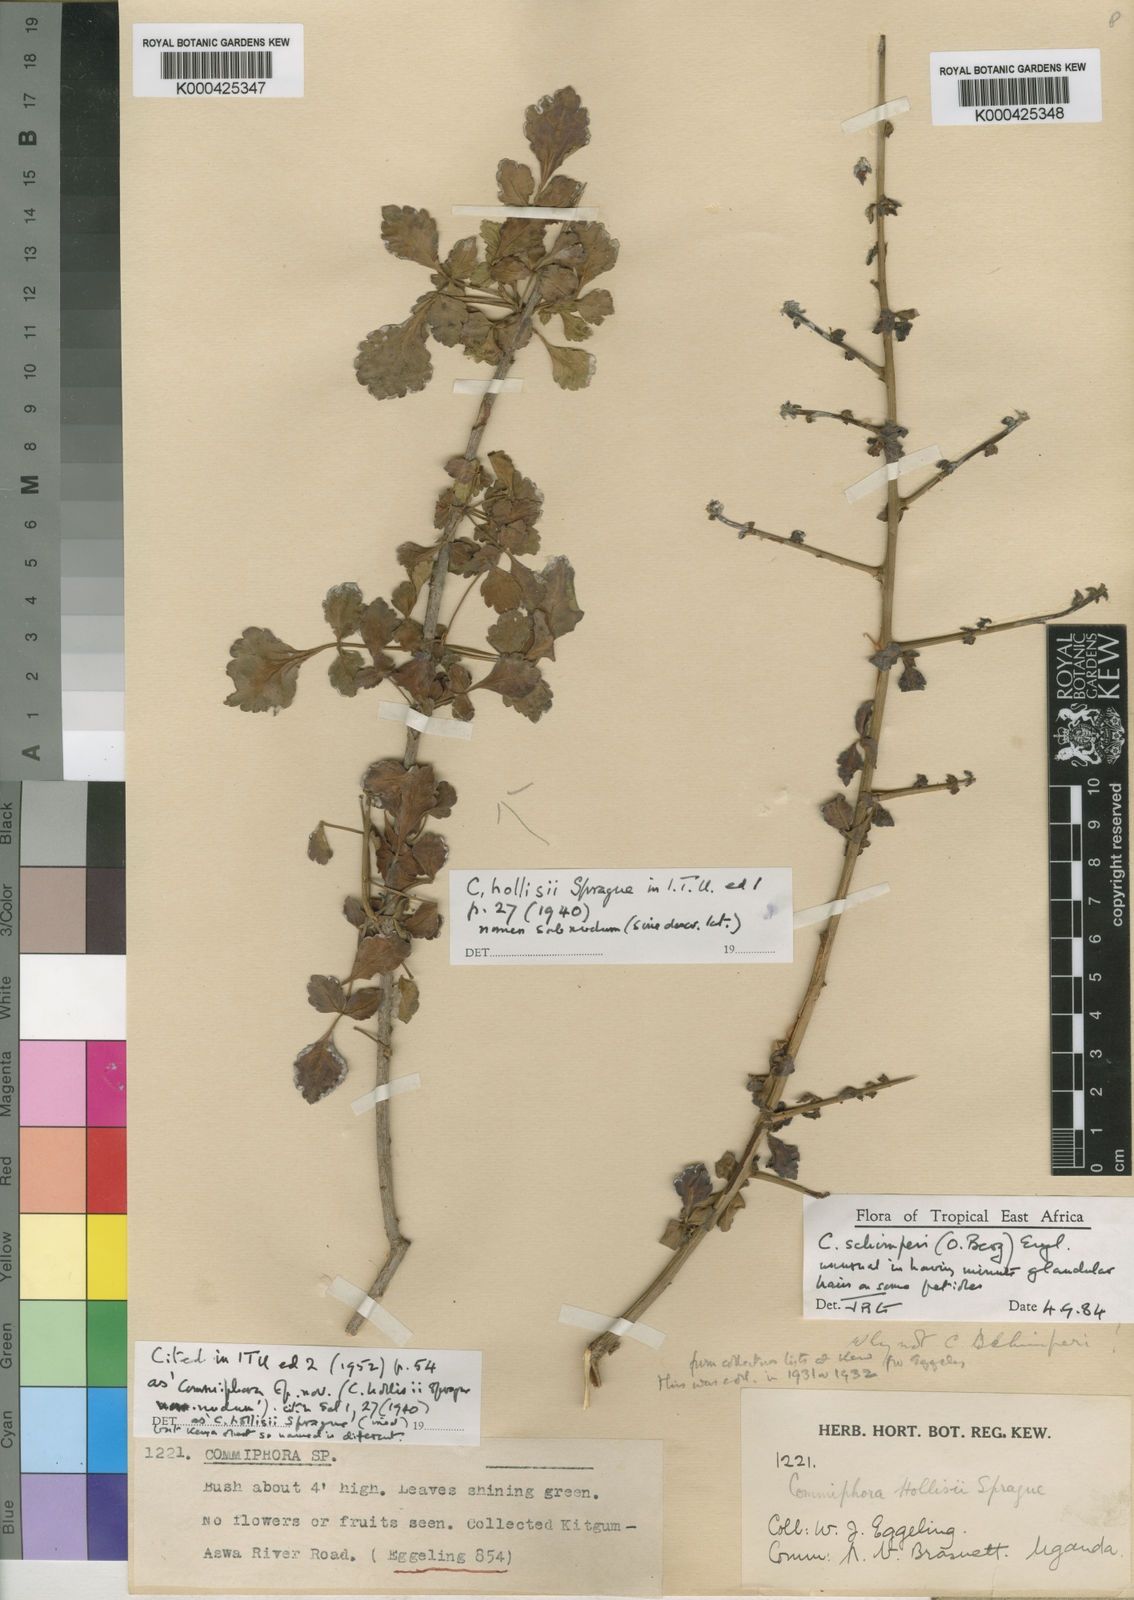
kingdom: Plantae
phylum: Tracheophyta
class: Magnoliopsida
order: Sapindales
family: Burseraceae
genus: Commiphora
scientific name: Commiphora schimperi
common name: Glossy-leaved corkwood
